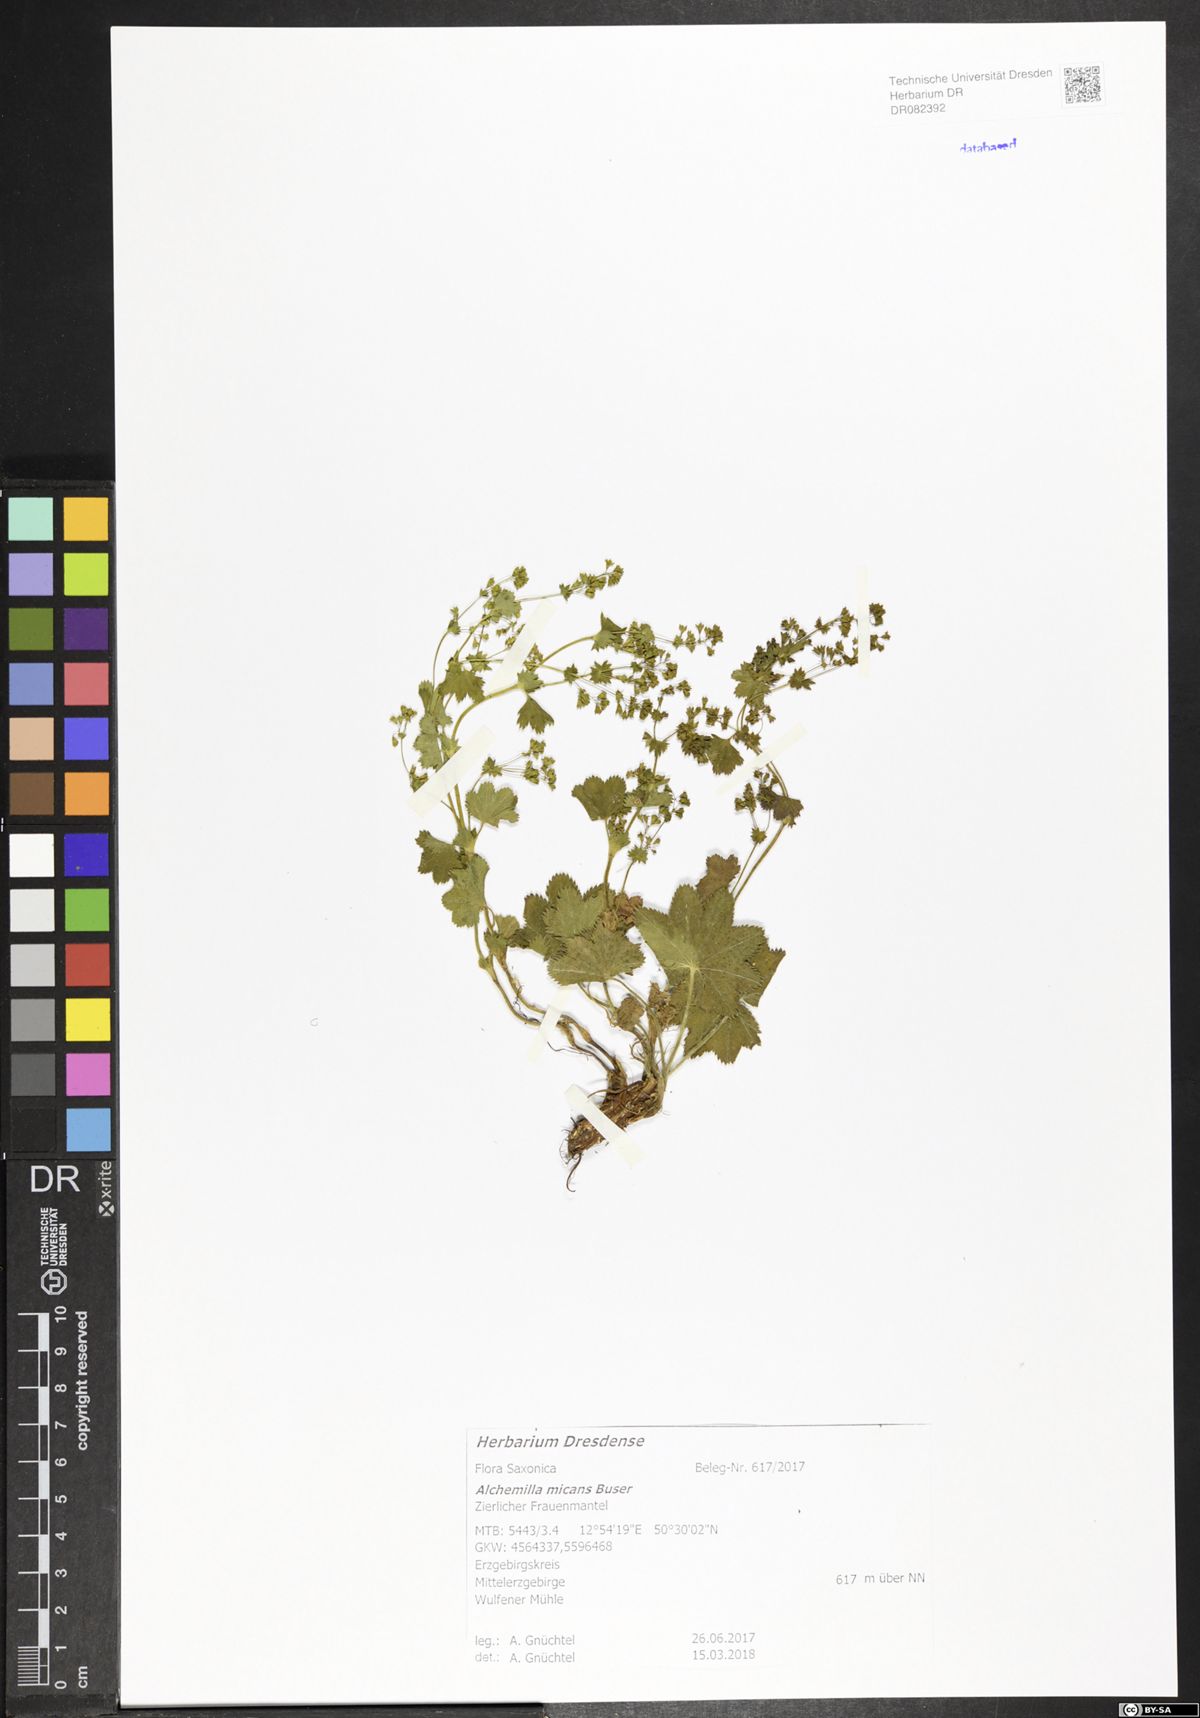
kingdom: Plantae
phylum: Tracheophyta
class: Magnoliopsida
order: Rosales
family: Rosaceae
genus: Alchemilla
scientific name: Alchemilla micans
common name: Gleaming lady's mantle
